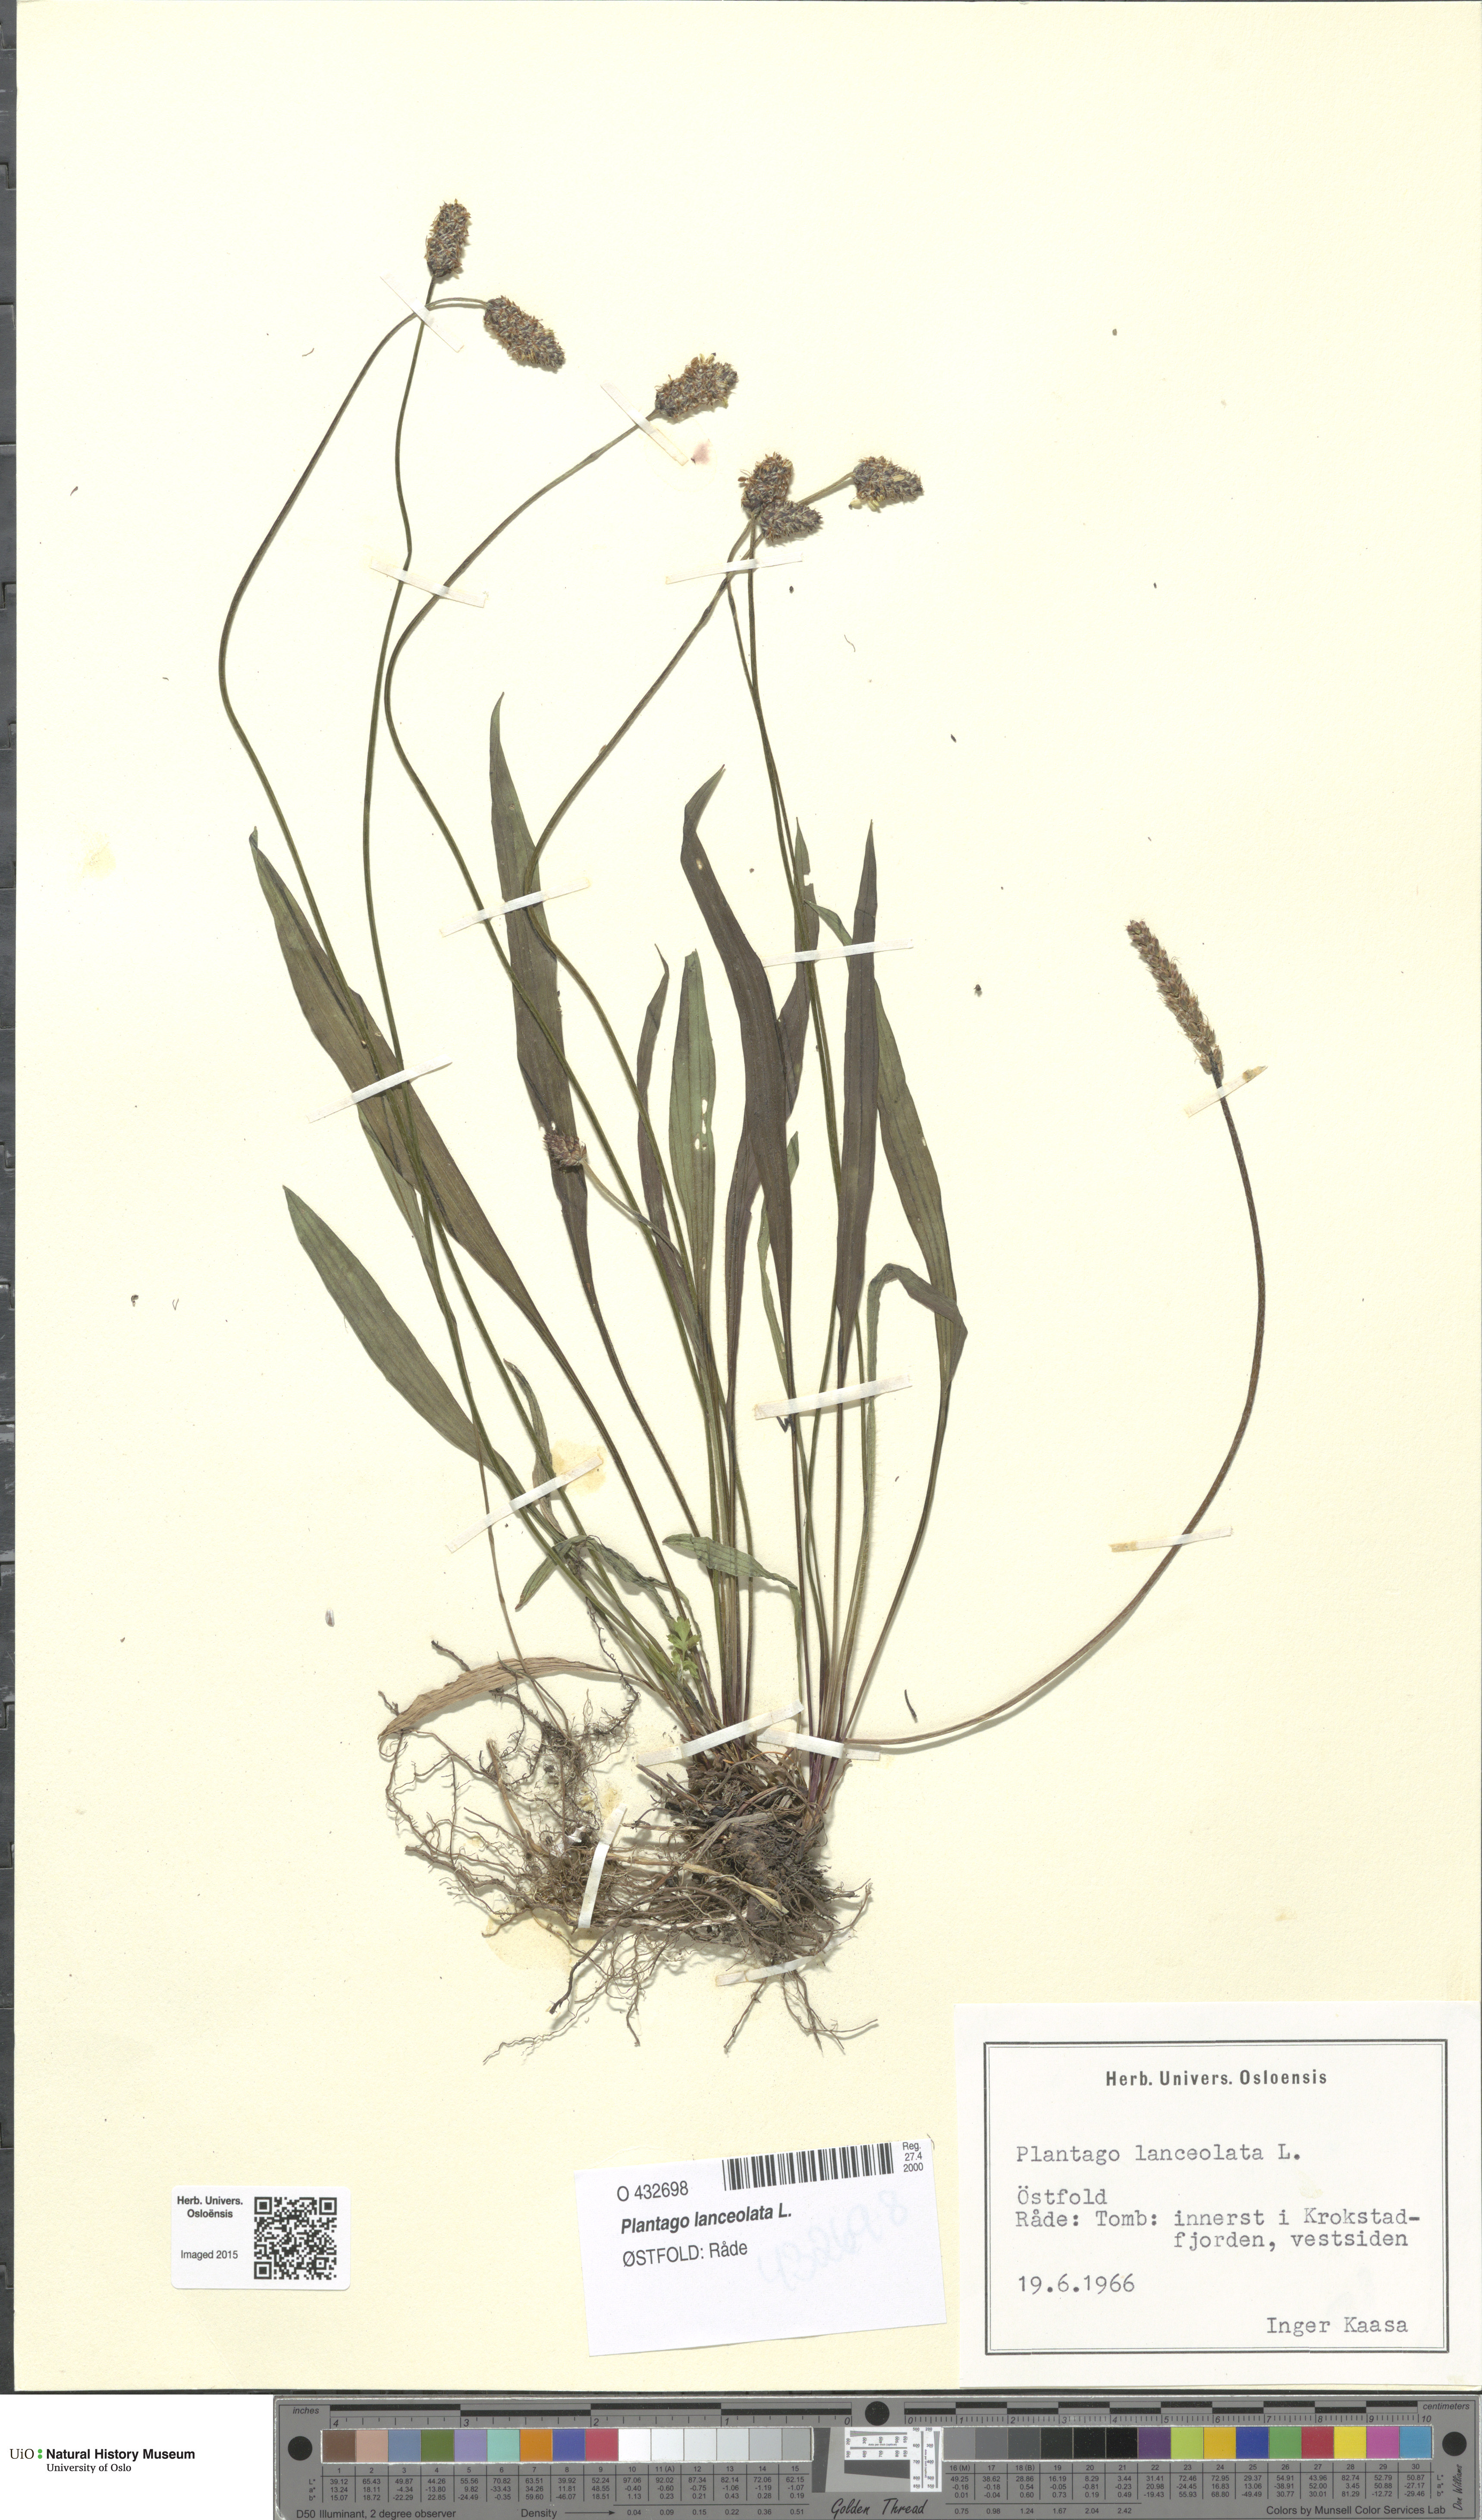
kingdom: Plantae
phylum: Tracheophyta
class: Magnoliopsida
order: Lamiales
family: Plantaginaceae
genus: Plantago
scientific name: Plantago lanceolata
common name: Ribwort plantain
